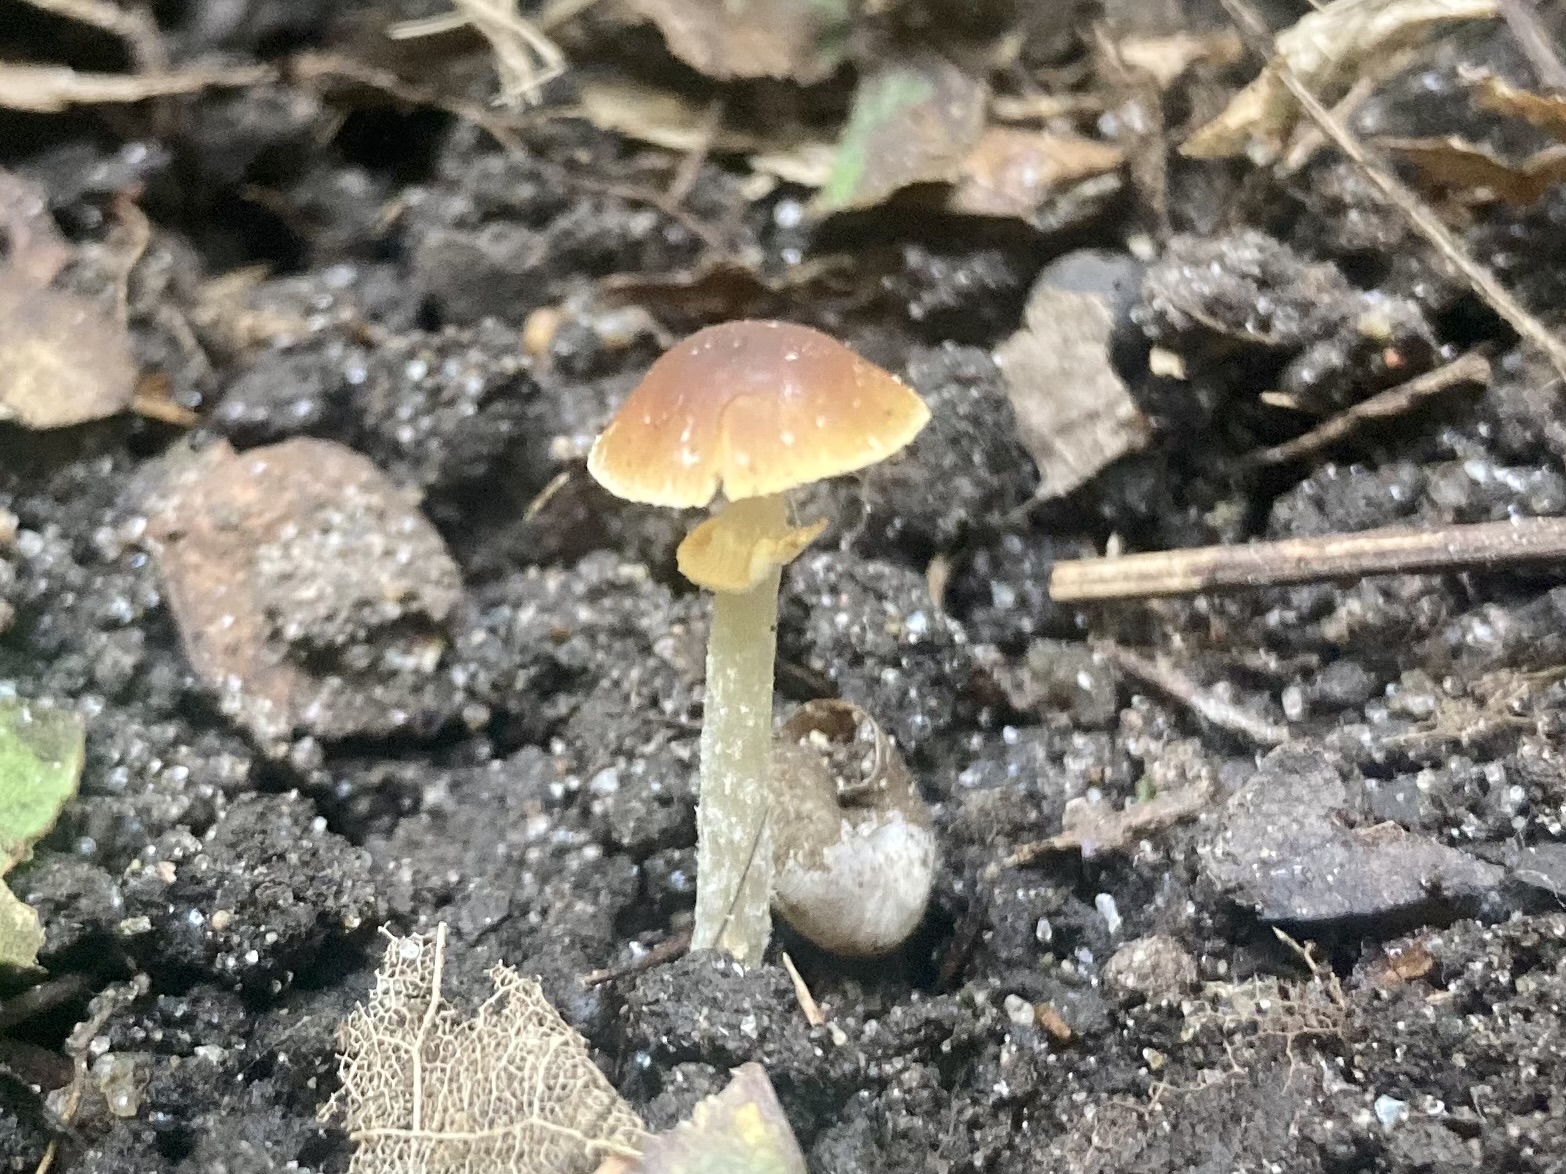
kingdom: Fungi
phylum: Basidiomycota
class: Agaricomycetes
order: Agaricales
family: Bolbitiaceae
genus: Conocybe
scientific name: Conocybe arrhenii
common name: ring-dansehat
